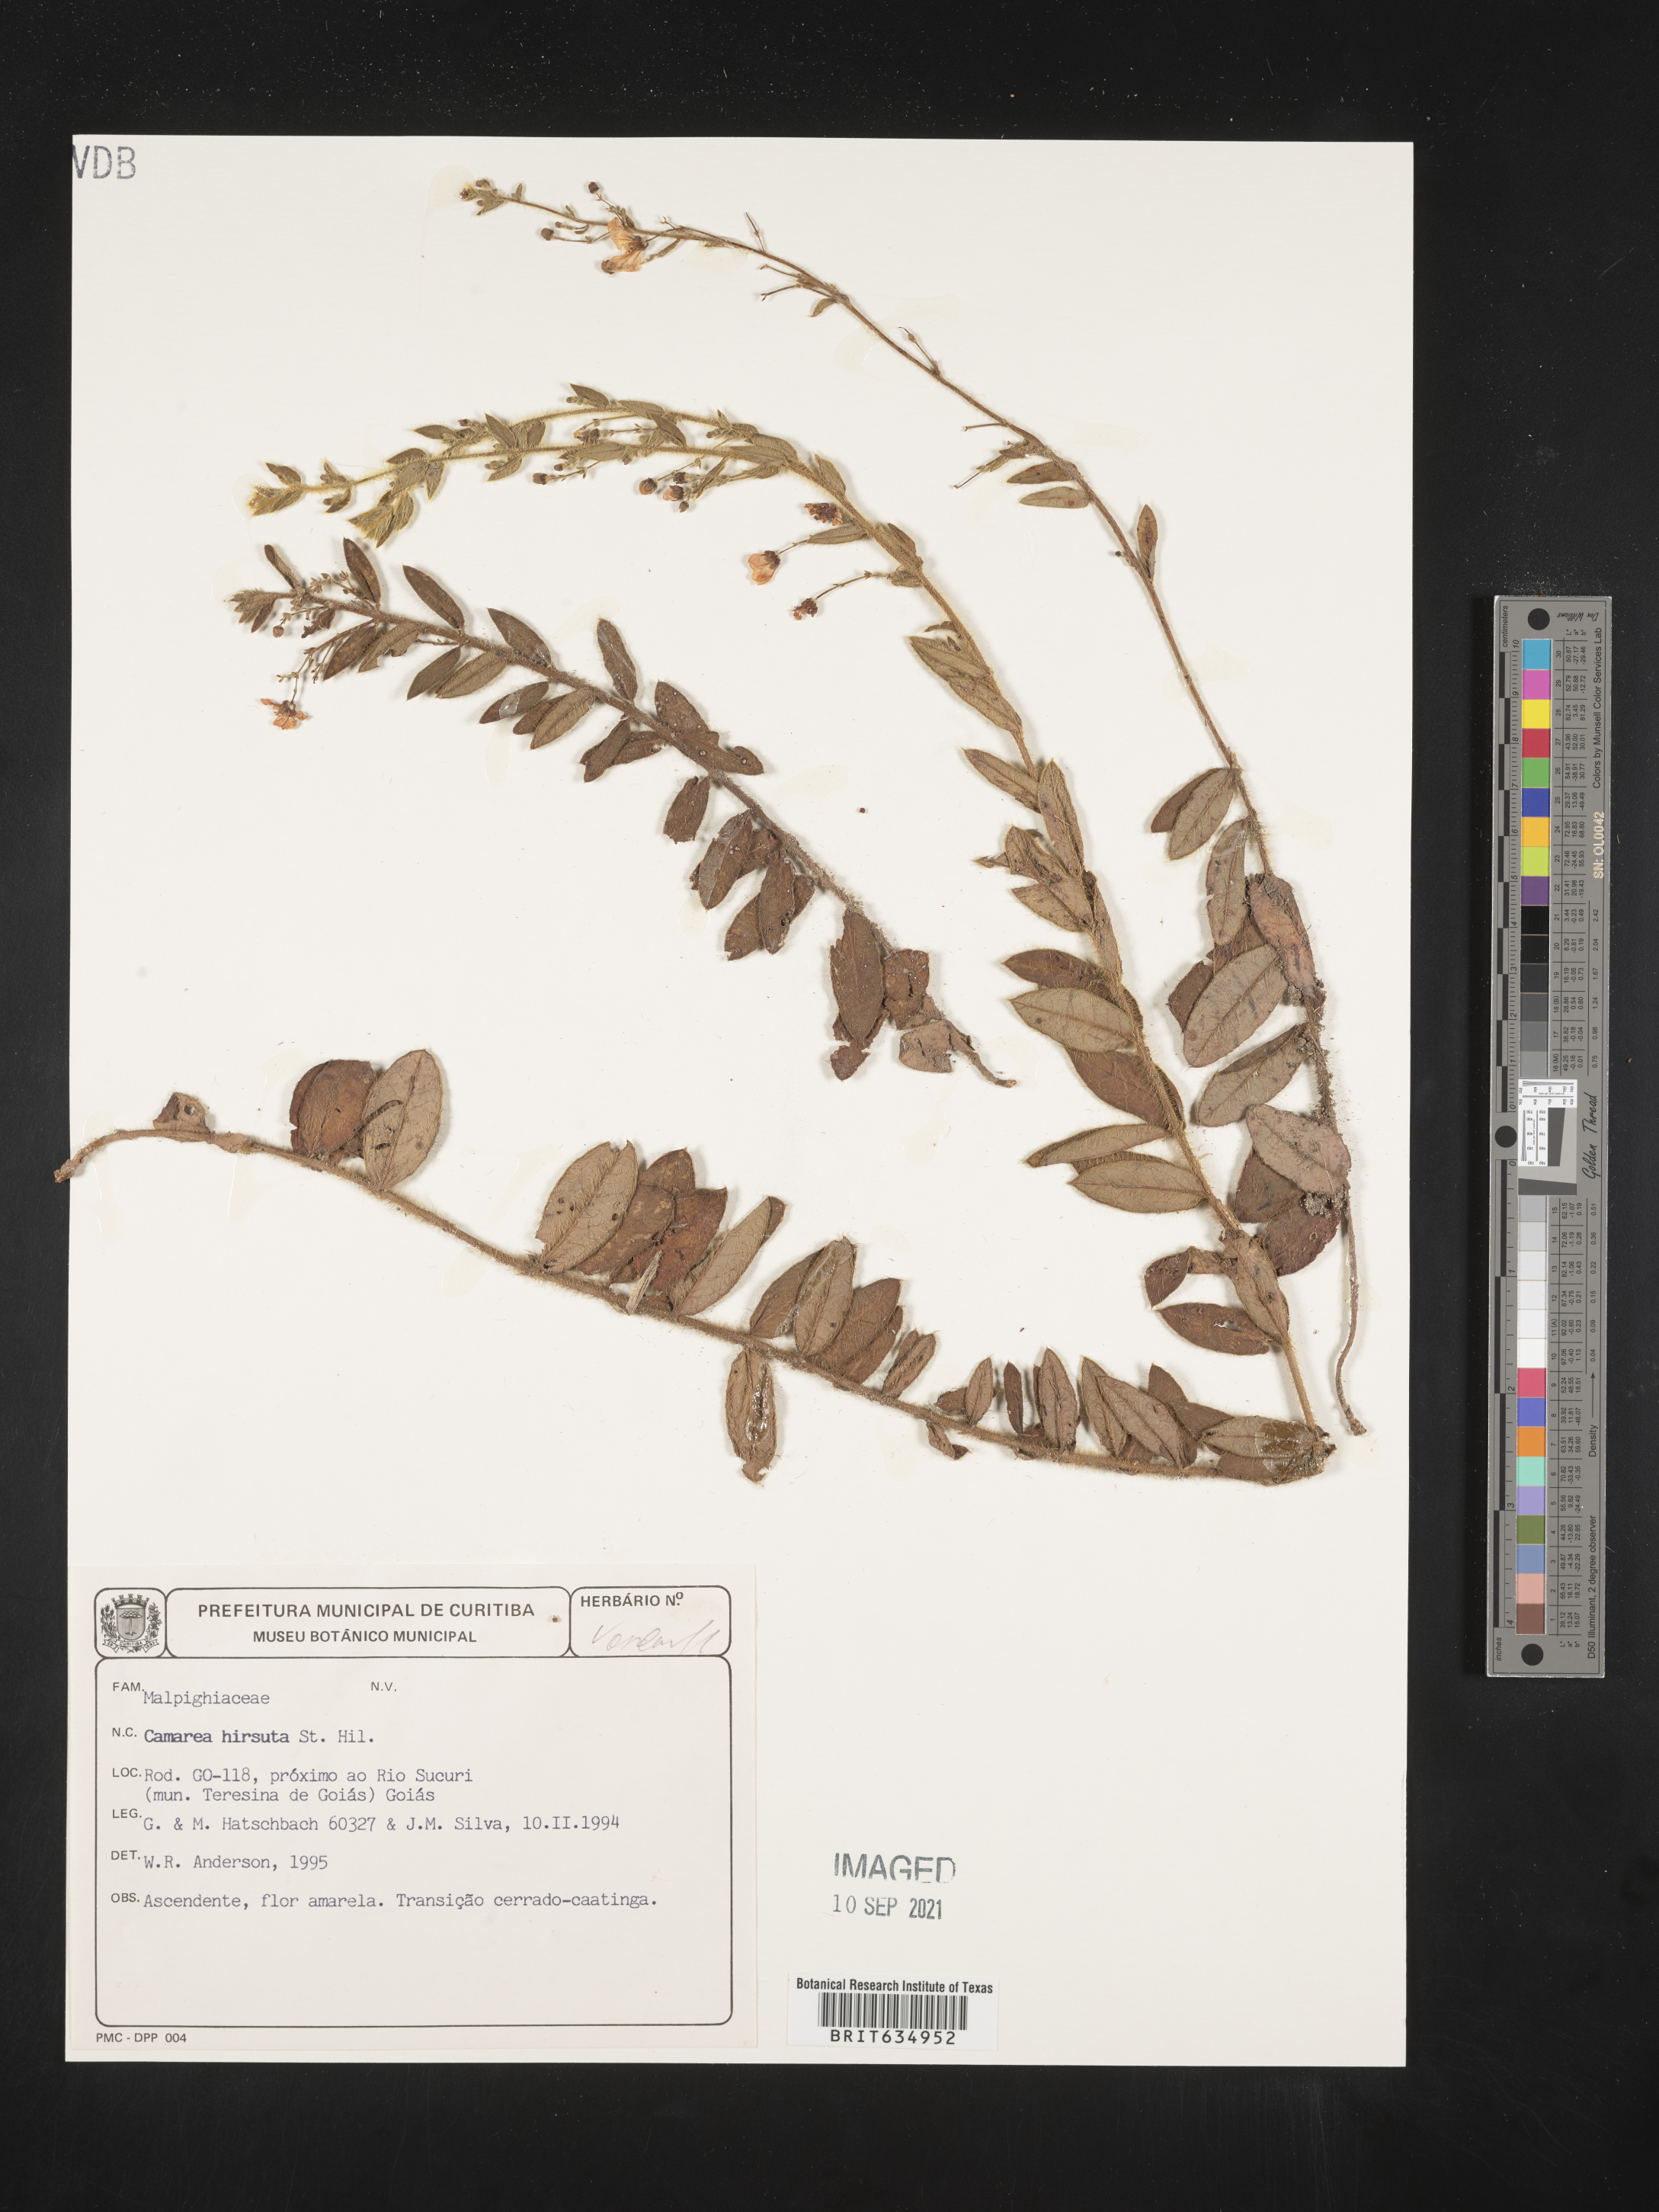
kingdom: Plantae
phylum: Tracheophyta
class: Magnoliopsida
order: Malpighiales
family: Malpighiaceae
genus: Camarea
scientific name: Camarea
